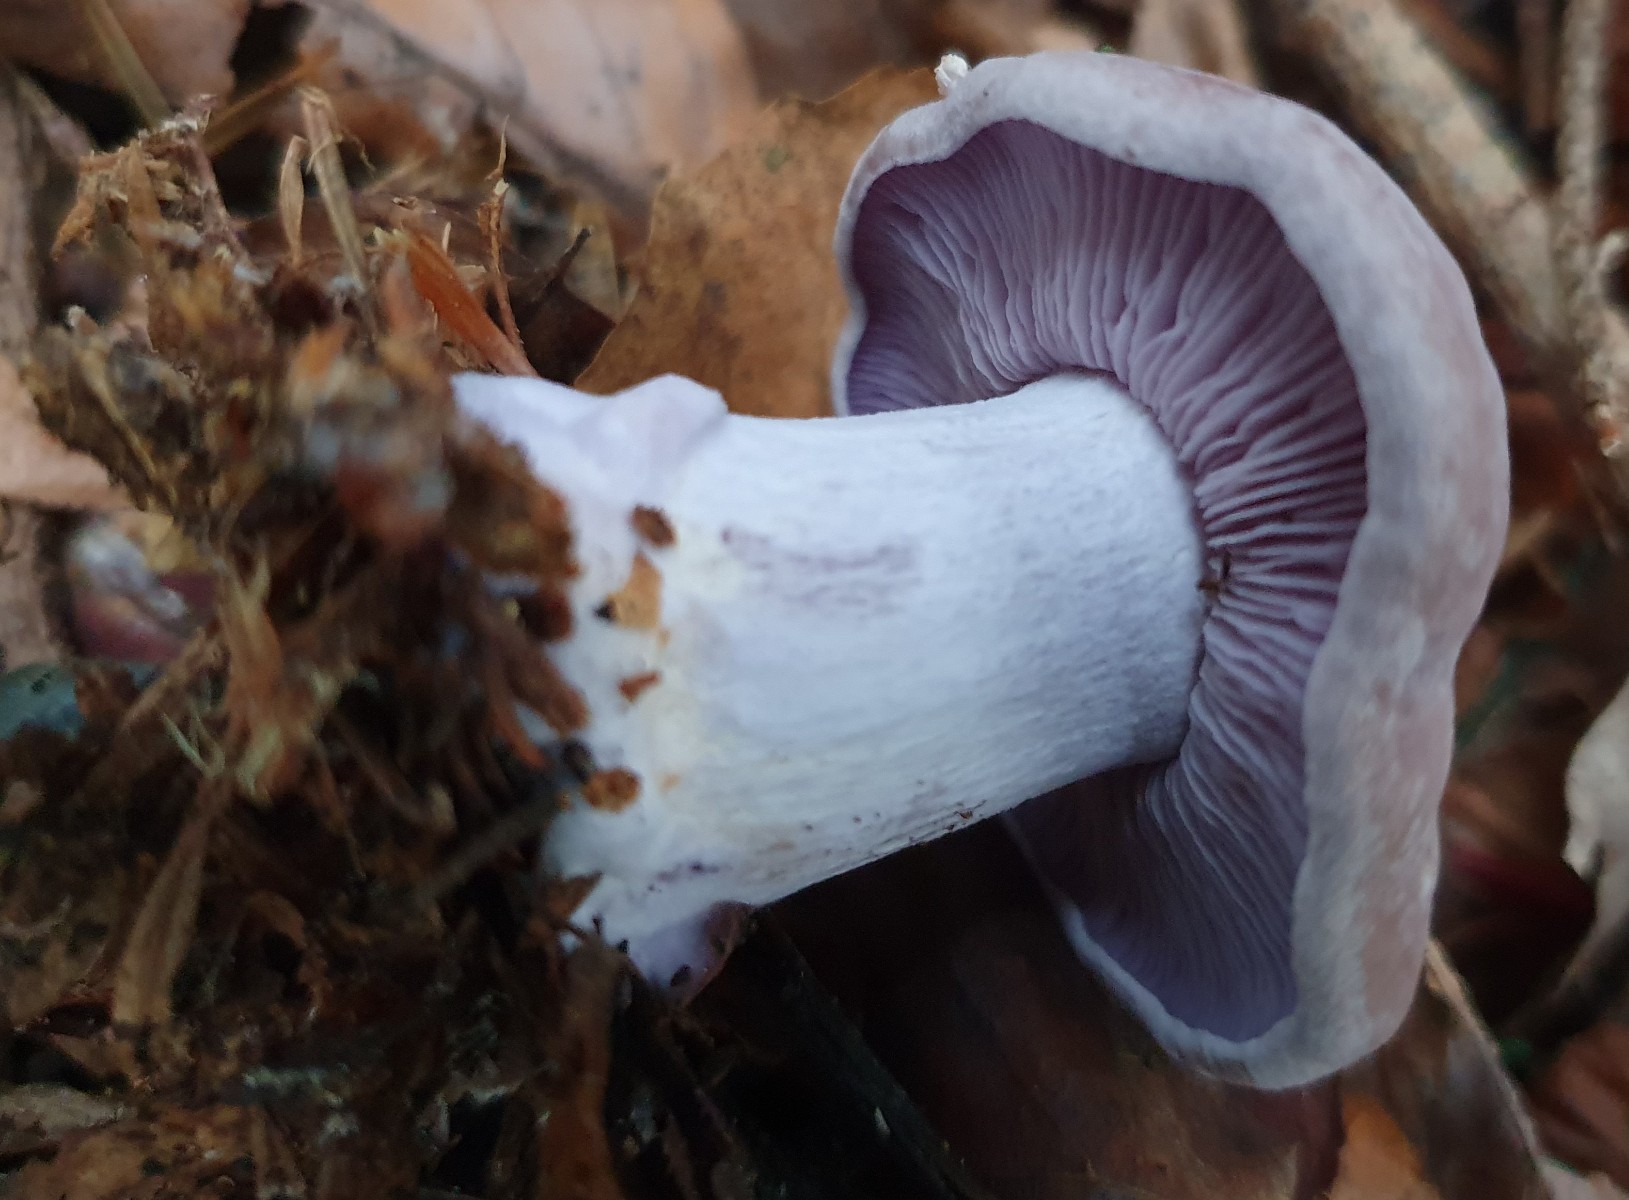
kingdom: Fungi
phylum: Basidiomycota
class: Agaricomycetes
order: Agaricales
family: Tricholomataceae
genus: Lepista
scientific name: Lepista nuda
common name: violet hekseringshat
